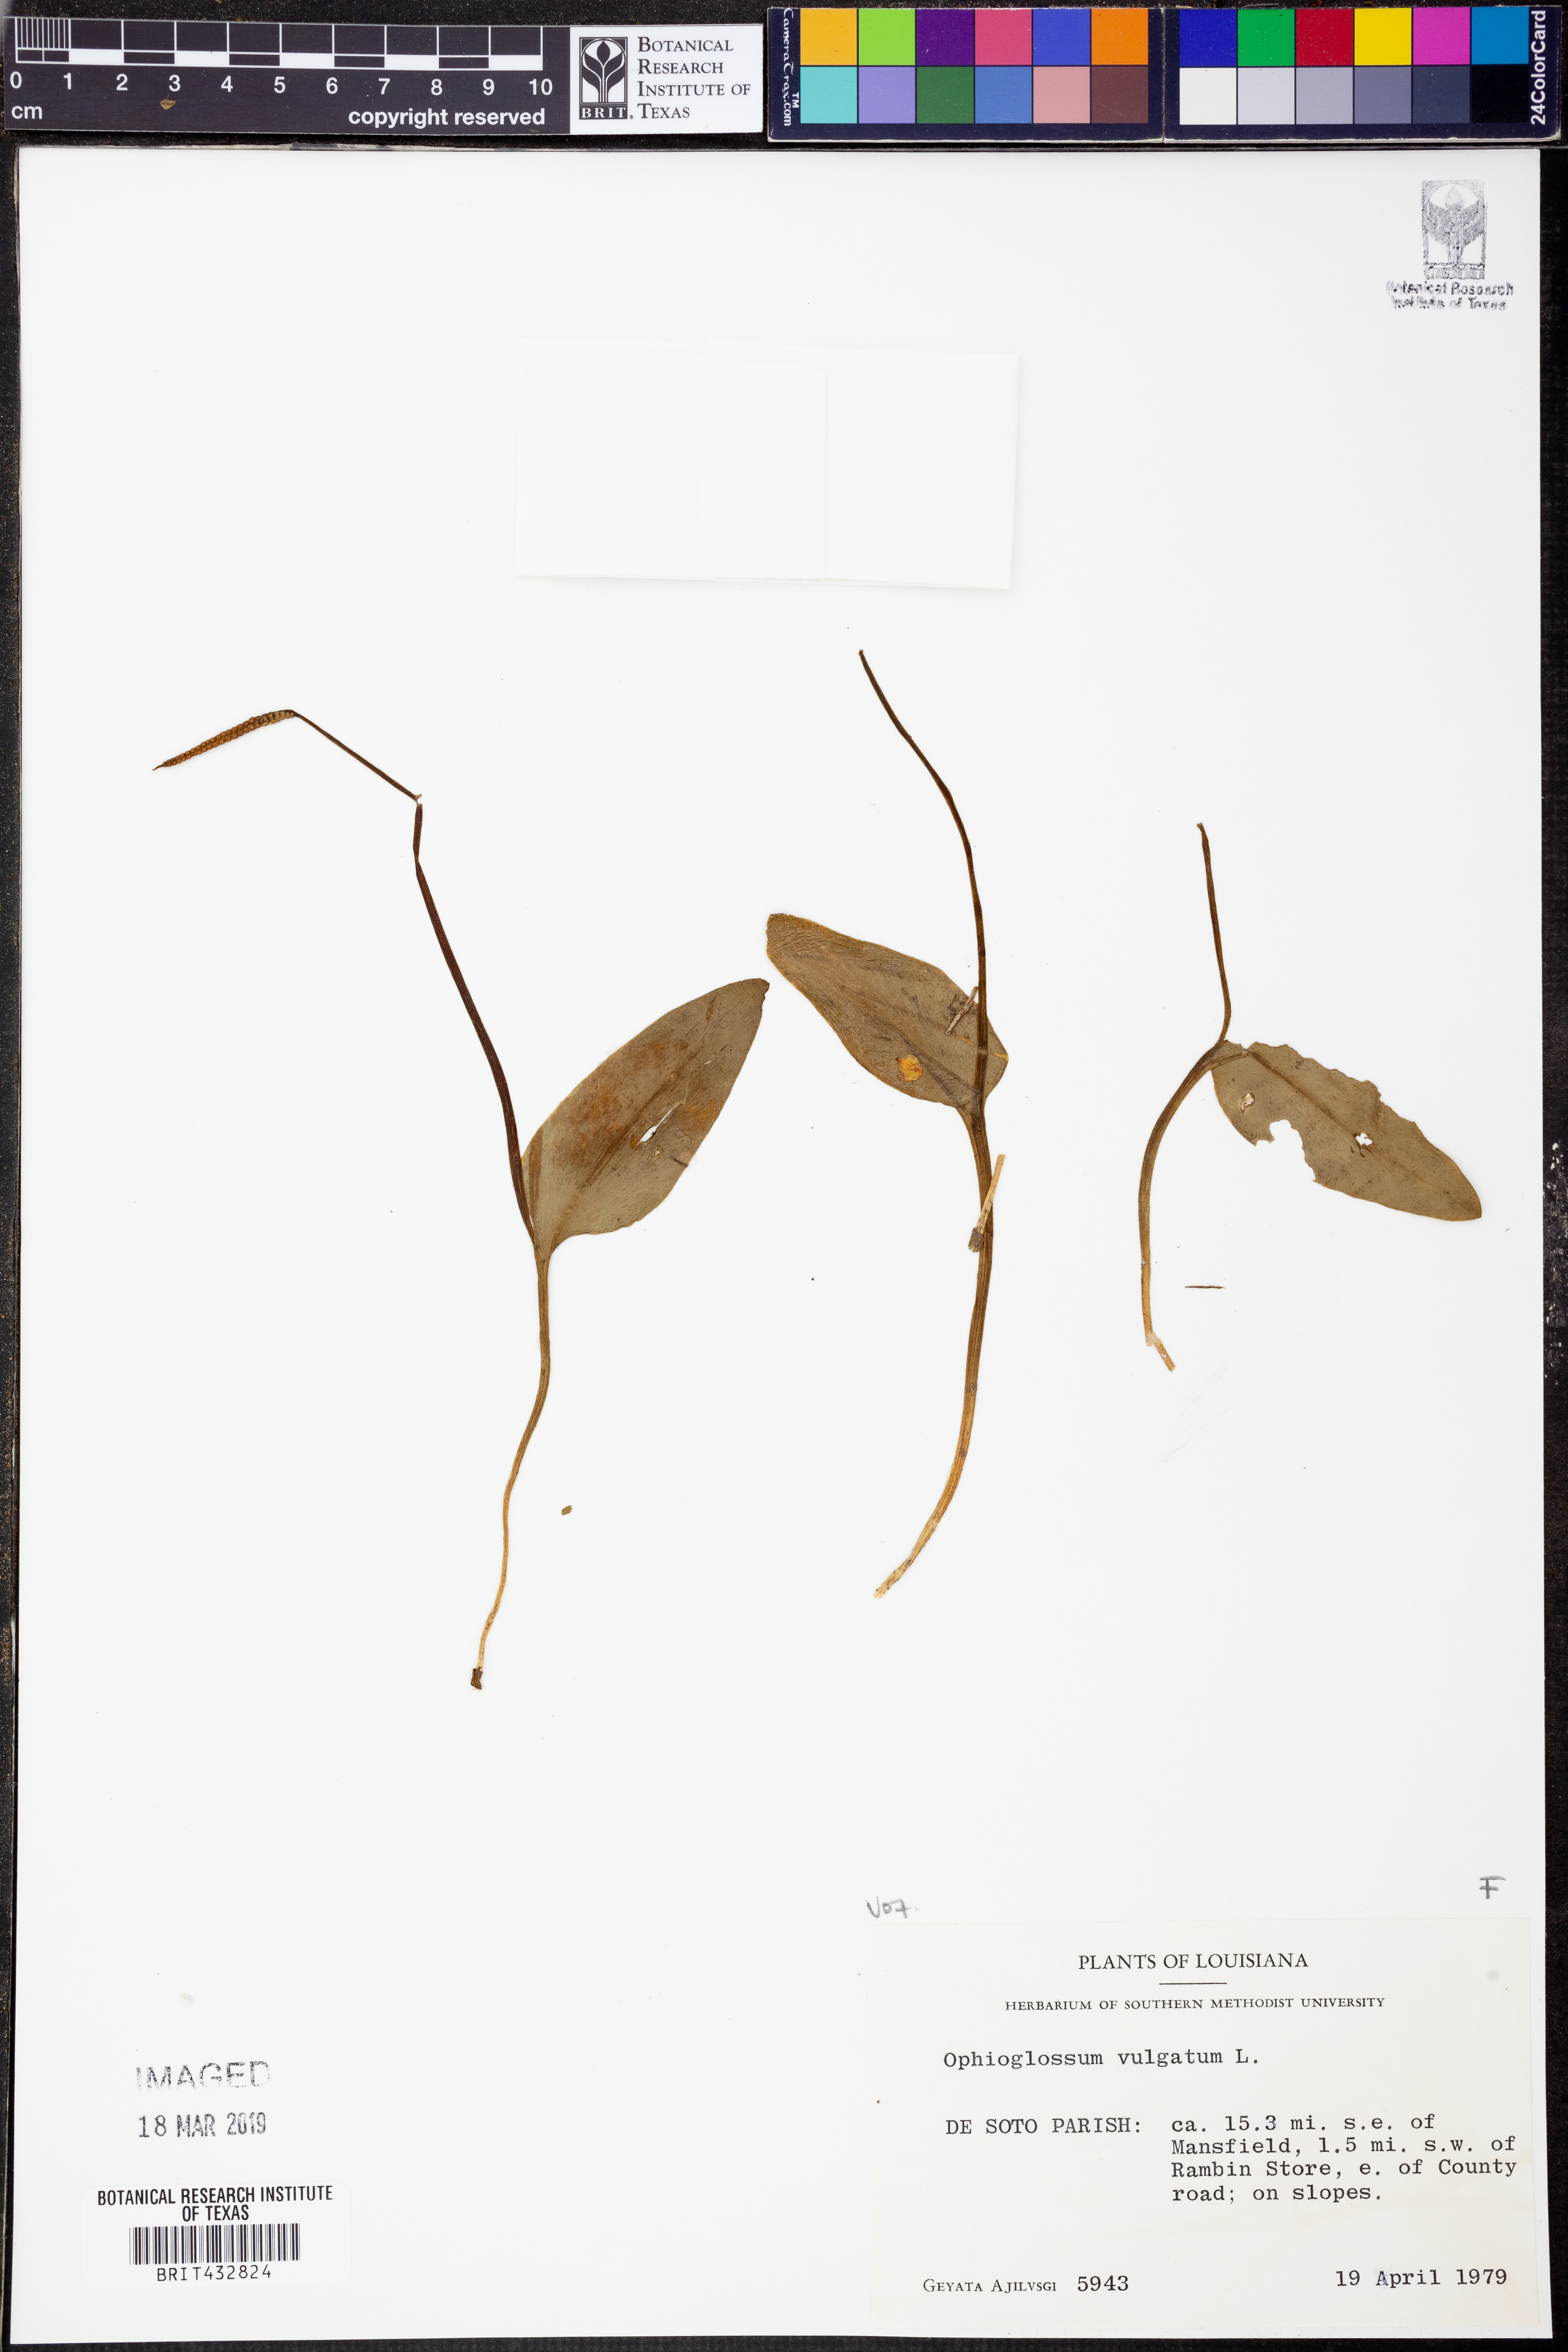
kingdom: Plantae
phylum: Tracheophyta
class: Polypodiopsida
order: Ophioglossales
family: Ophioglossaceae
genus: Ophioglossum
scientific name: Ophioglossum vulgatum
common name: Adder's-tongue
